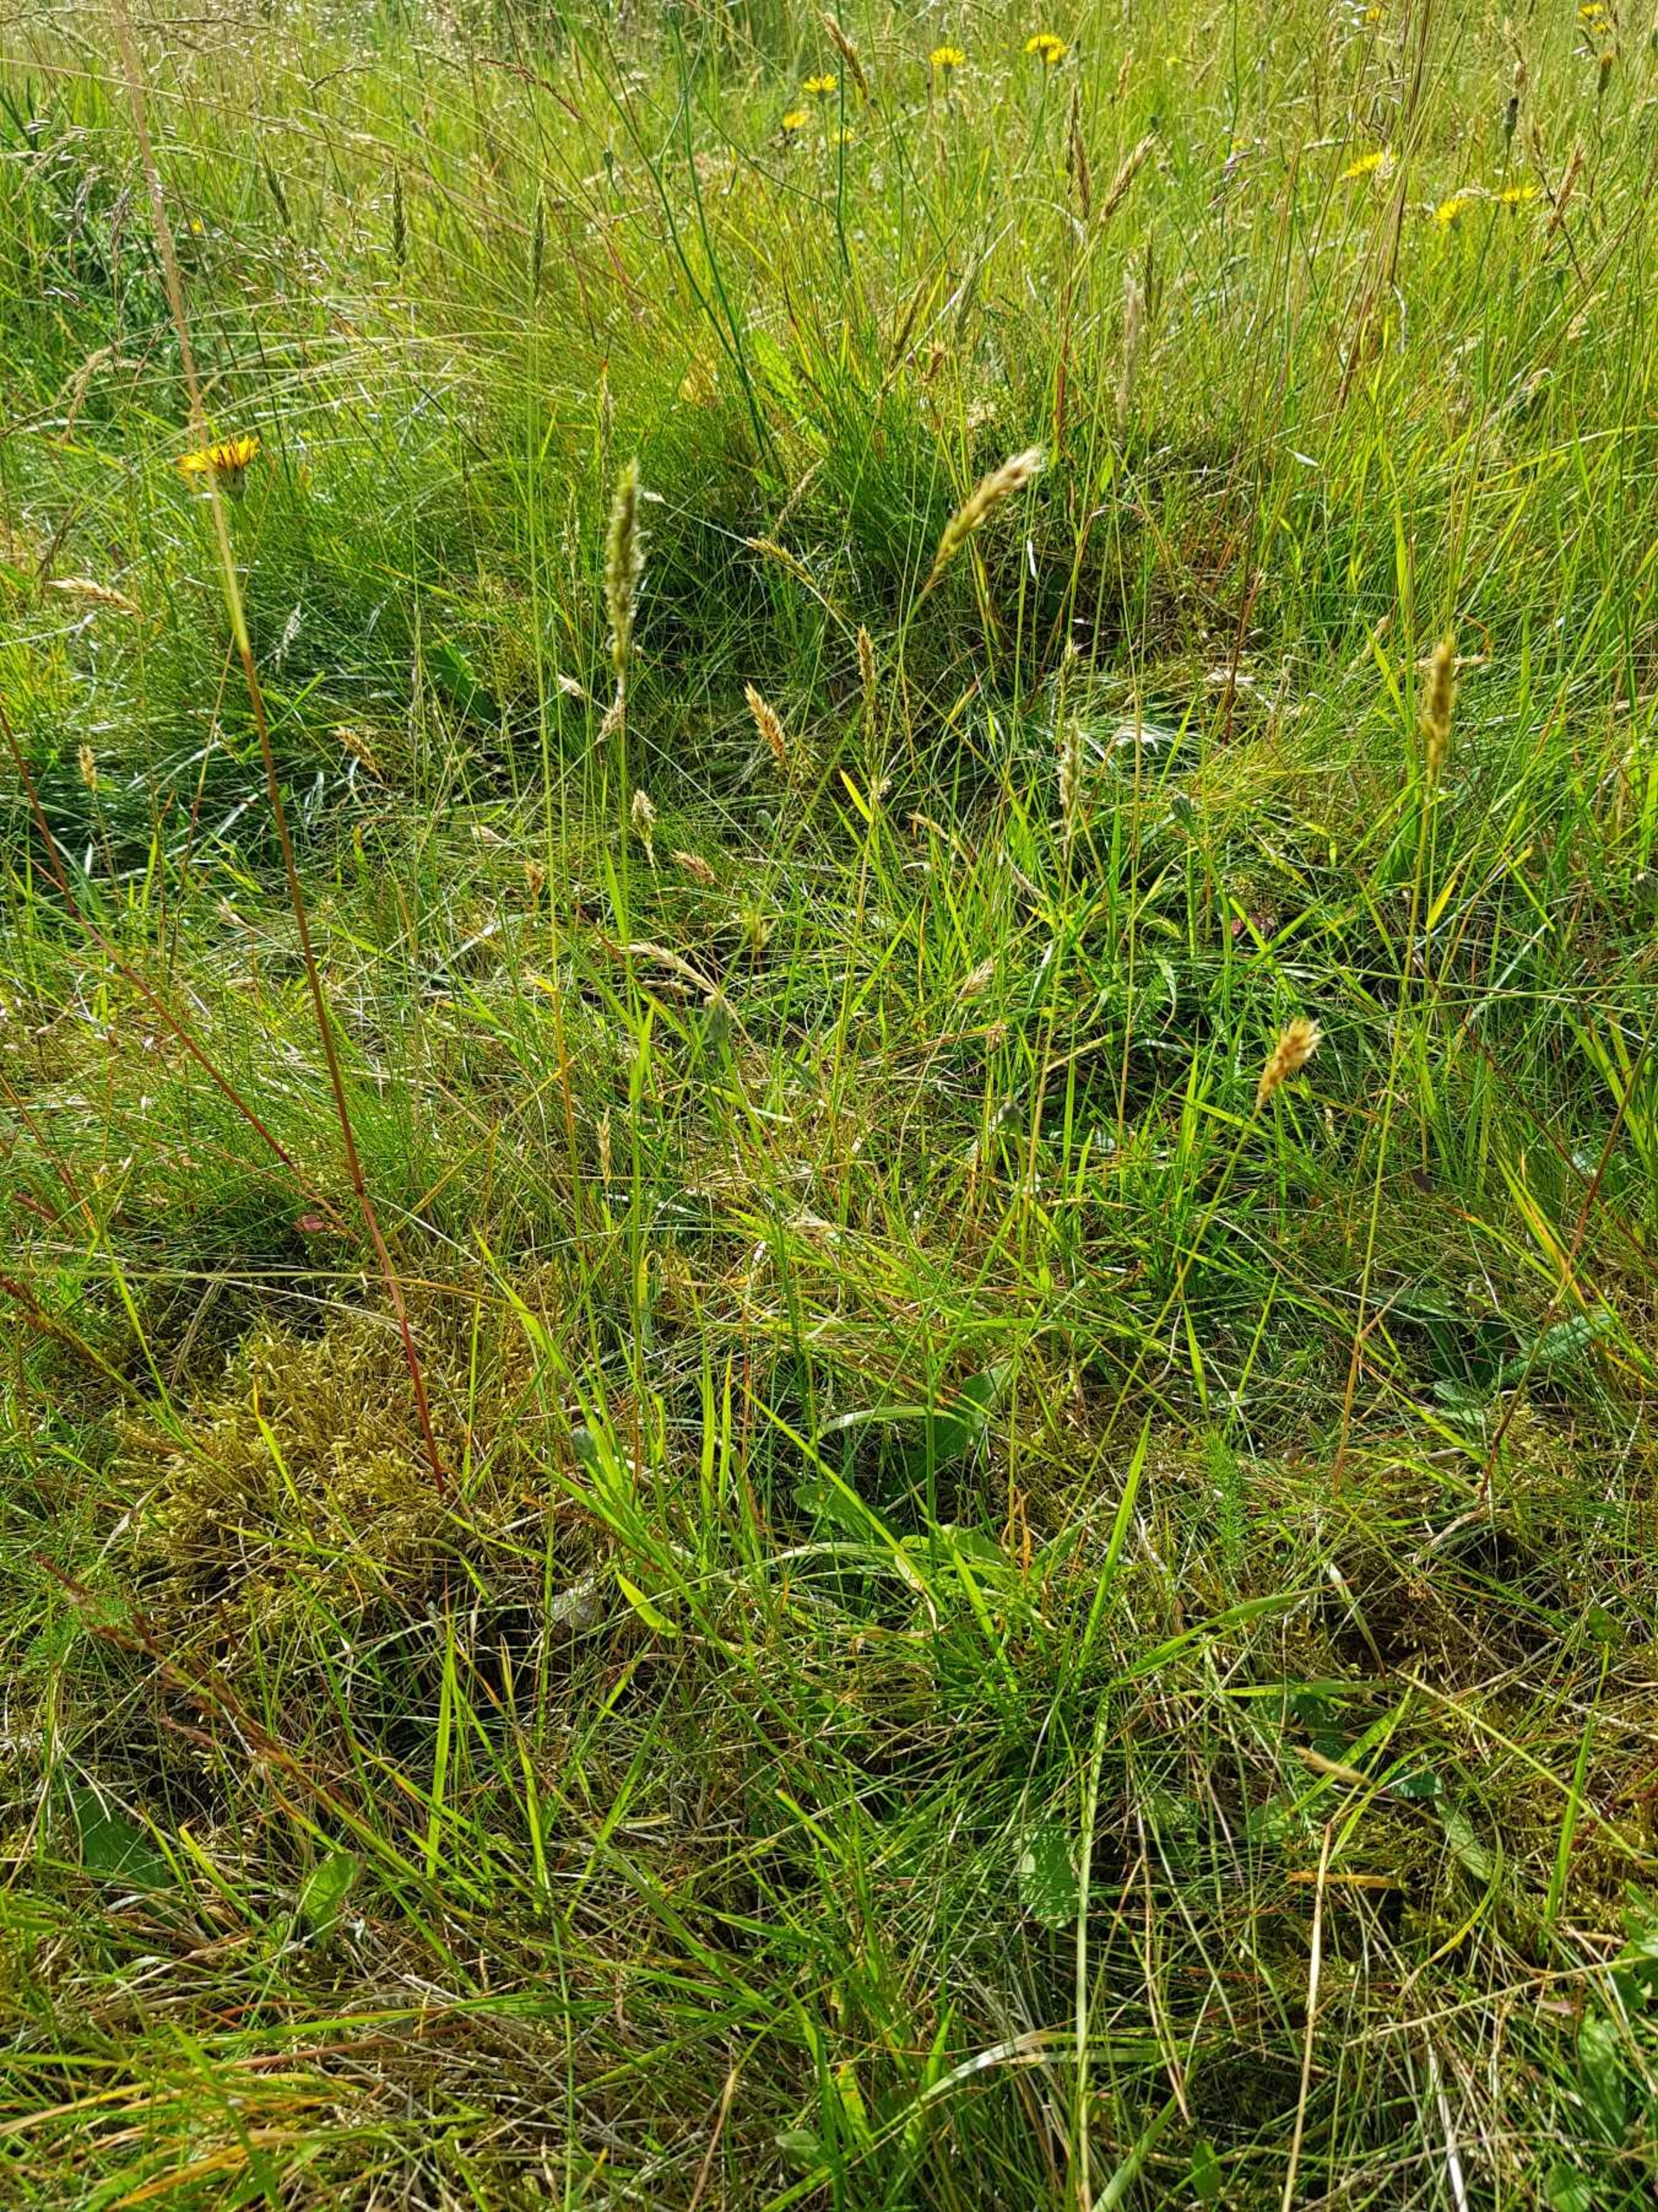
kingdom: Plantae
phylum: Tracheophyta
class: Liliopsida
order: Poales
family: Poaceae
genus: Anthoxanthum
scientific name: Anthoxanthum odoratum
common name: Vellugtende gulaks
